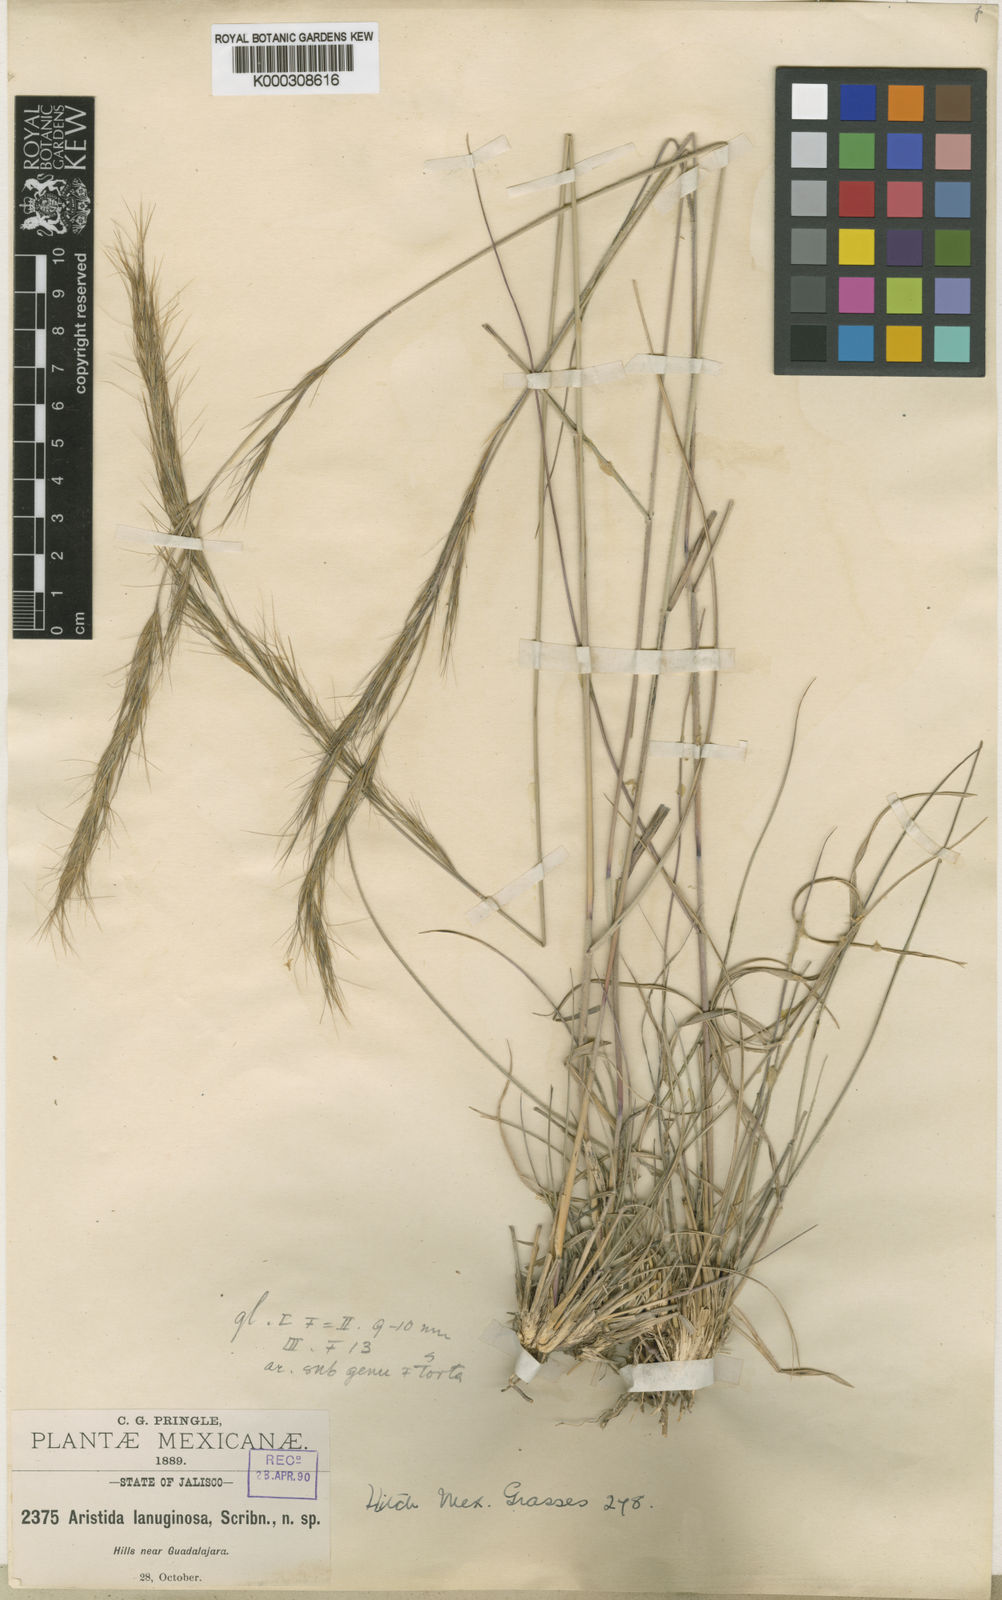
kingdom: Plantae
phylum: Tracheophyta
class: Liliopsida
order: Poales
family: Poaceae
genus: Aristida
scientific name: Aristida scribneriana
